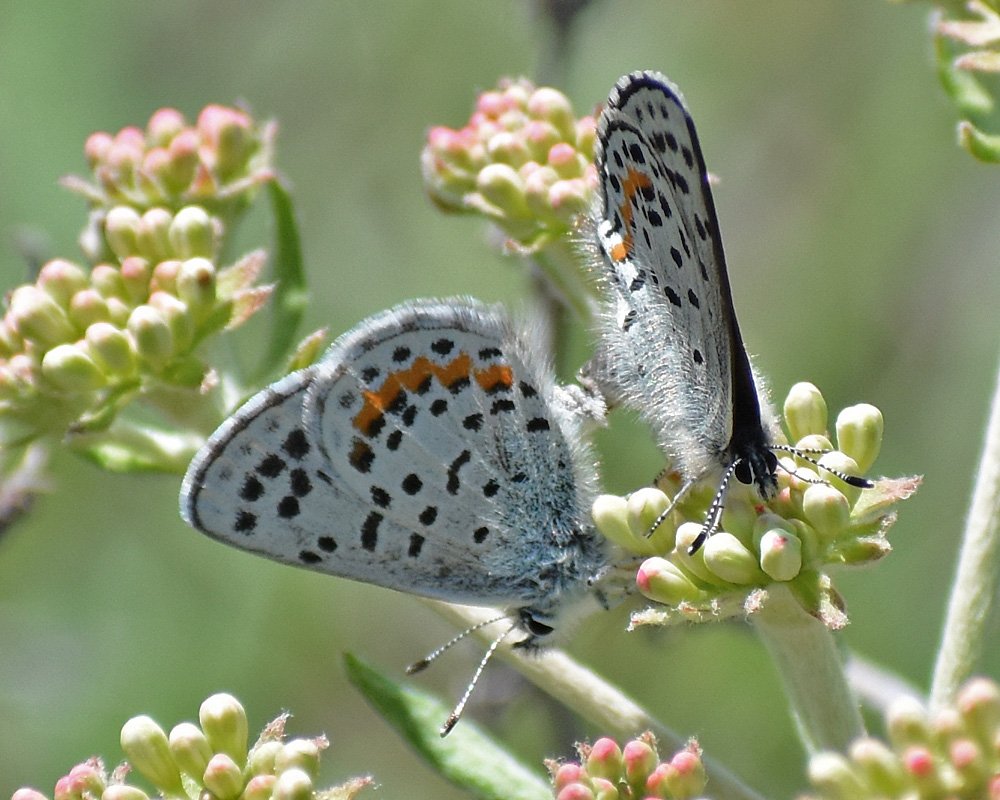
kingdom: Animalia
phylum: Arthropoda
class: Insecta
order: Lepidoptera
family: Lycaenidae
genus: Euphilotes
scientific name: Euphilotes
